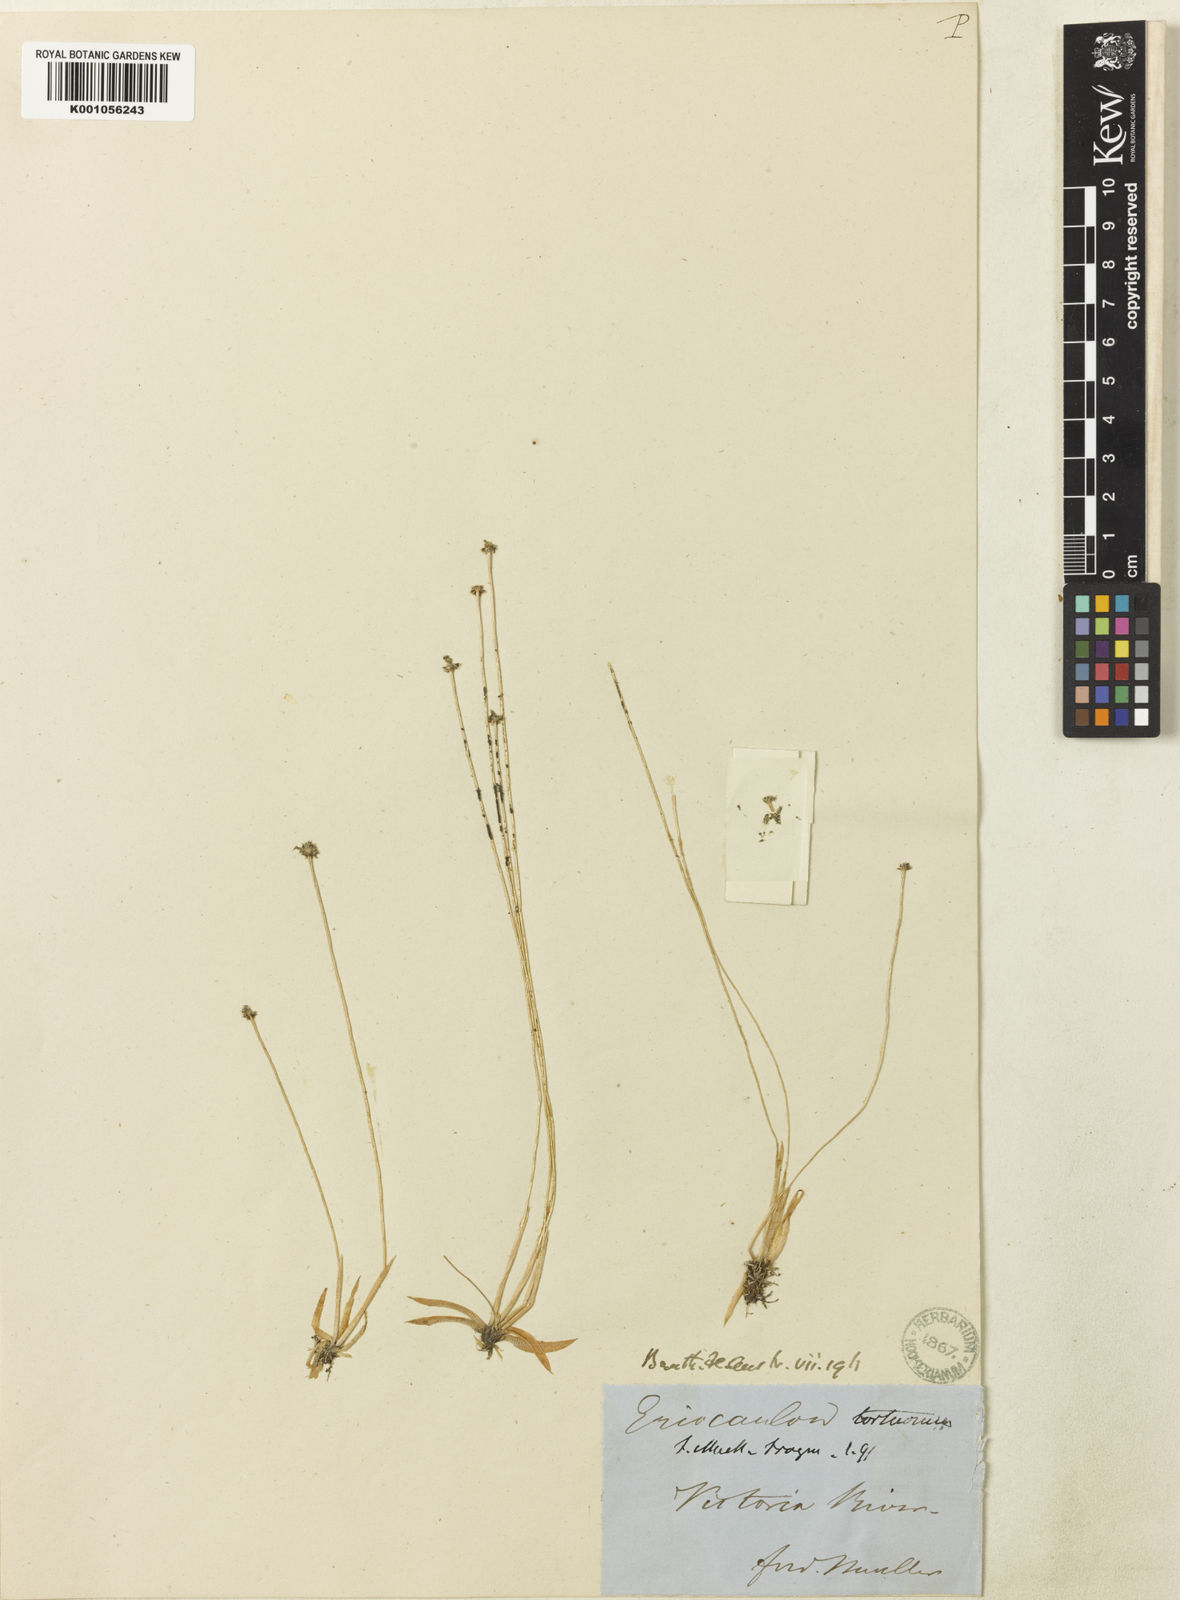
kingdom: Plantae
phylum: Tracheophyta
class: Liliopsida
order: Poales
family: Eriocaulaceae
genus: Eriocaulon
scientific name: Eriocaulon tortuosum
